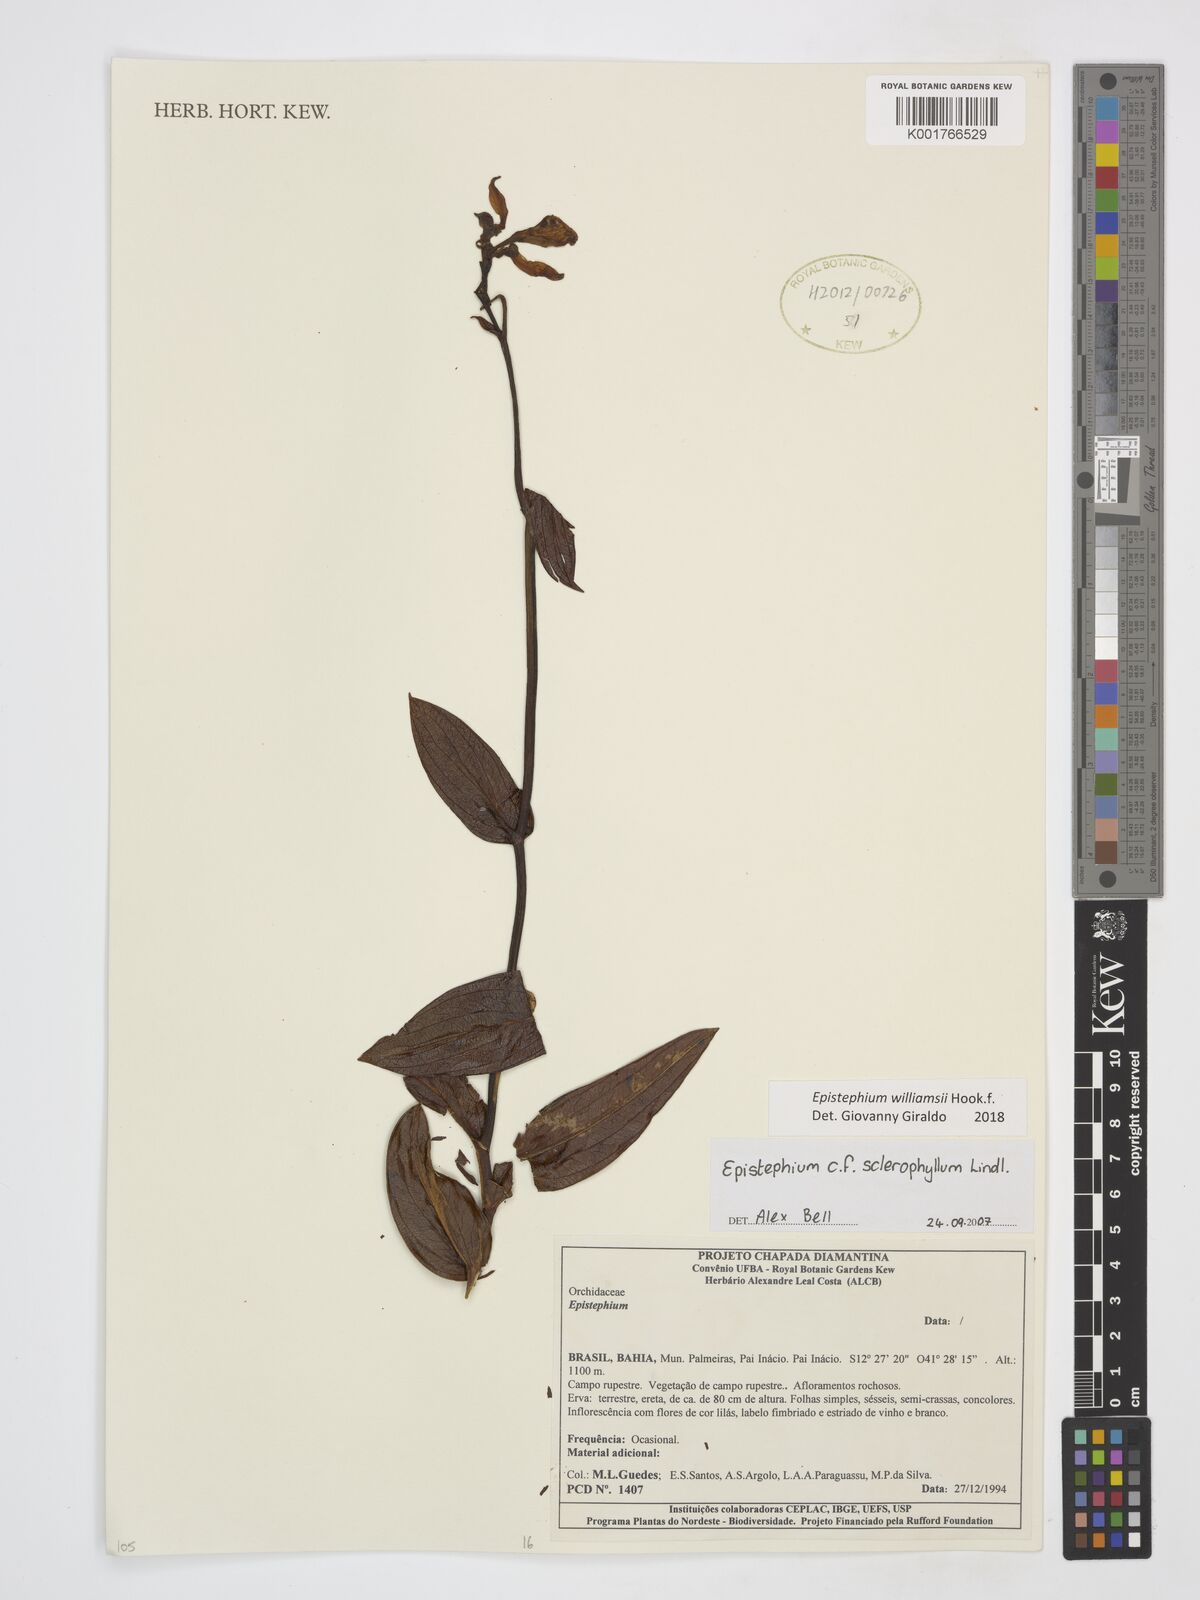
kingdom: Plantae
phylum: Tracheophyta
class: Liliopsida
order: Asparagales
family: Orchidaceae
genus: Epistephium
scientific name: Epistephium williamsii
